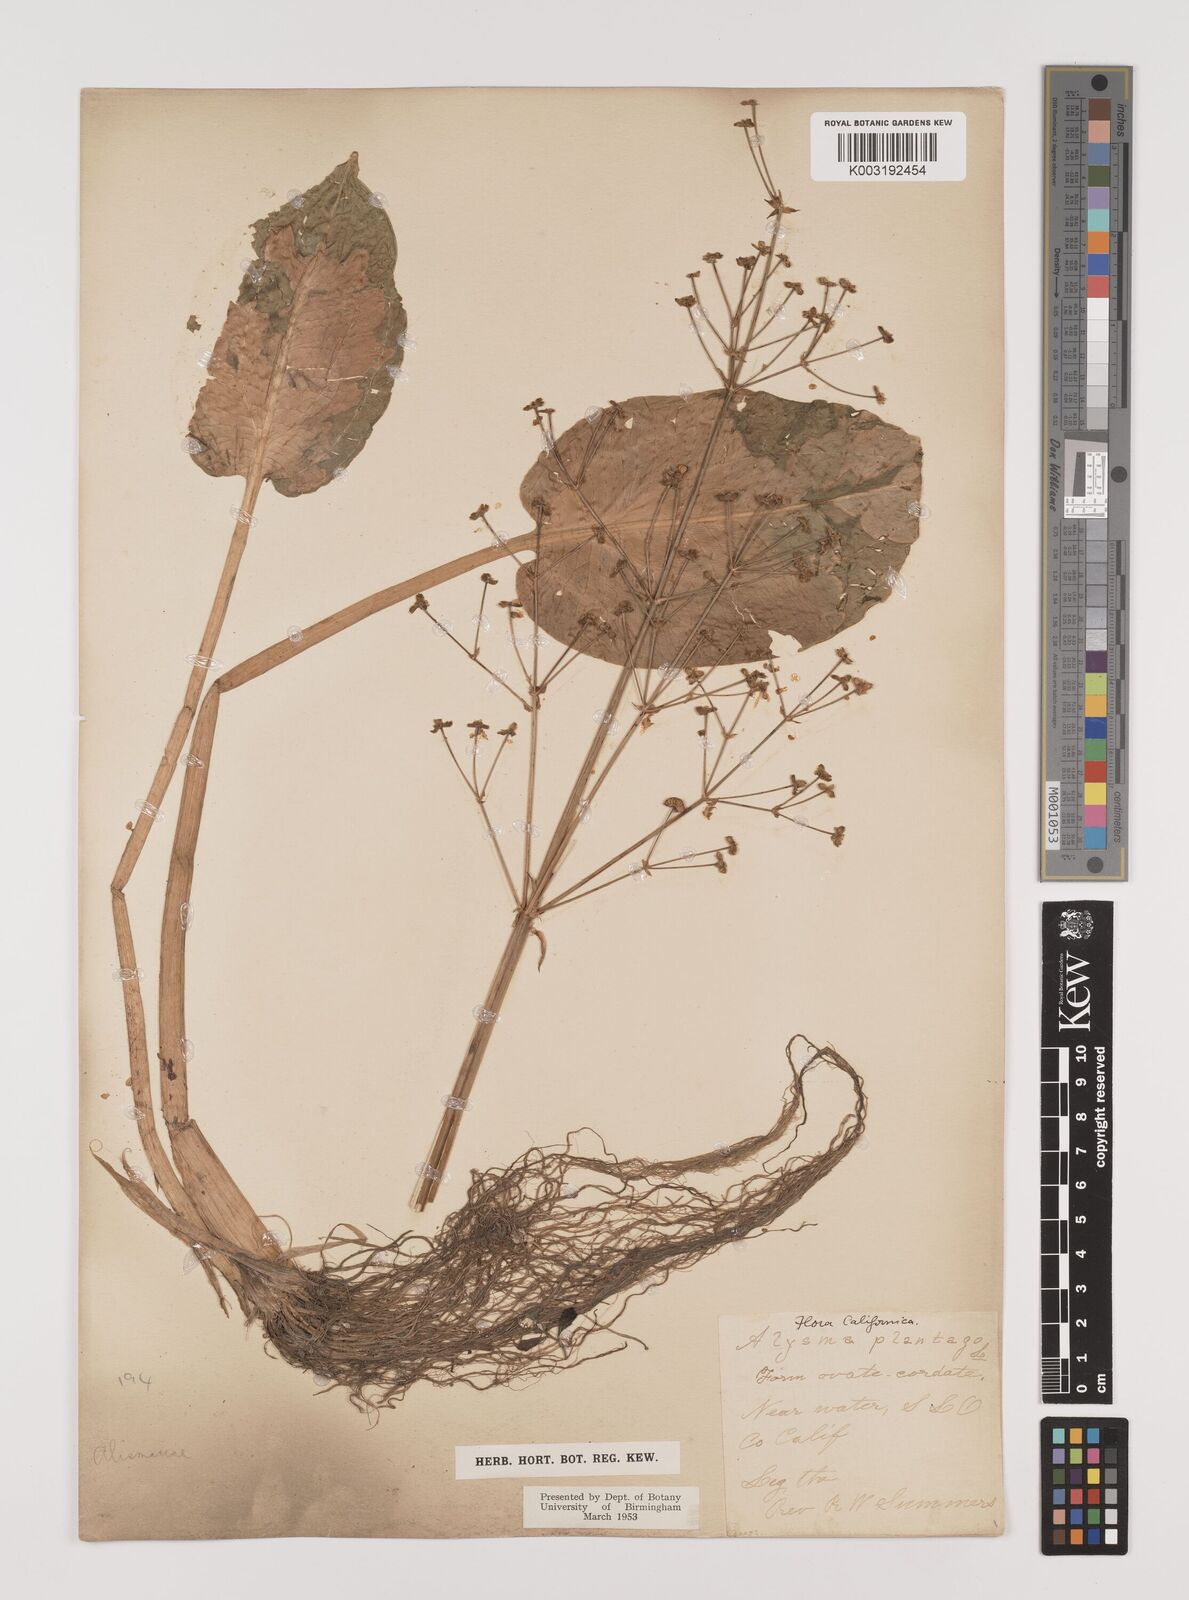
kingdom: Plantae
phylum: Tracheophyta
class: Liliopsida
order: Alismatales
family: Alismataceae
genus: Alisma
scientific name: Alisma plantago-aquatica
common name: Water-plantain
